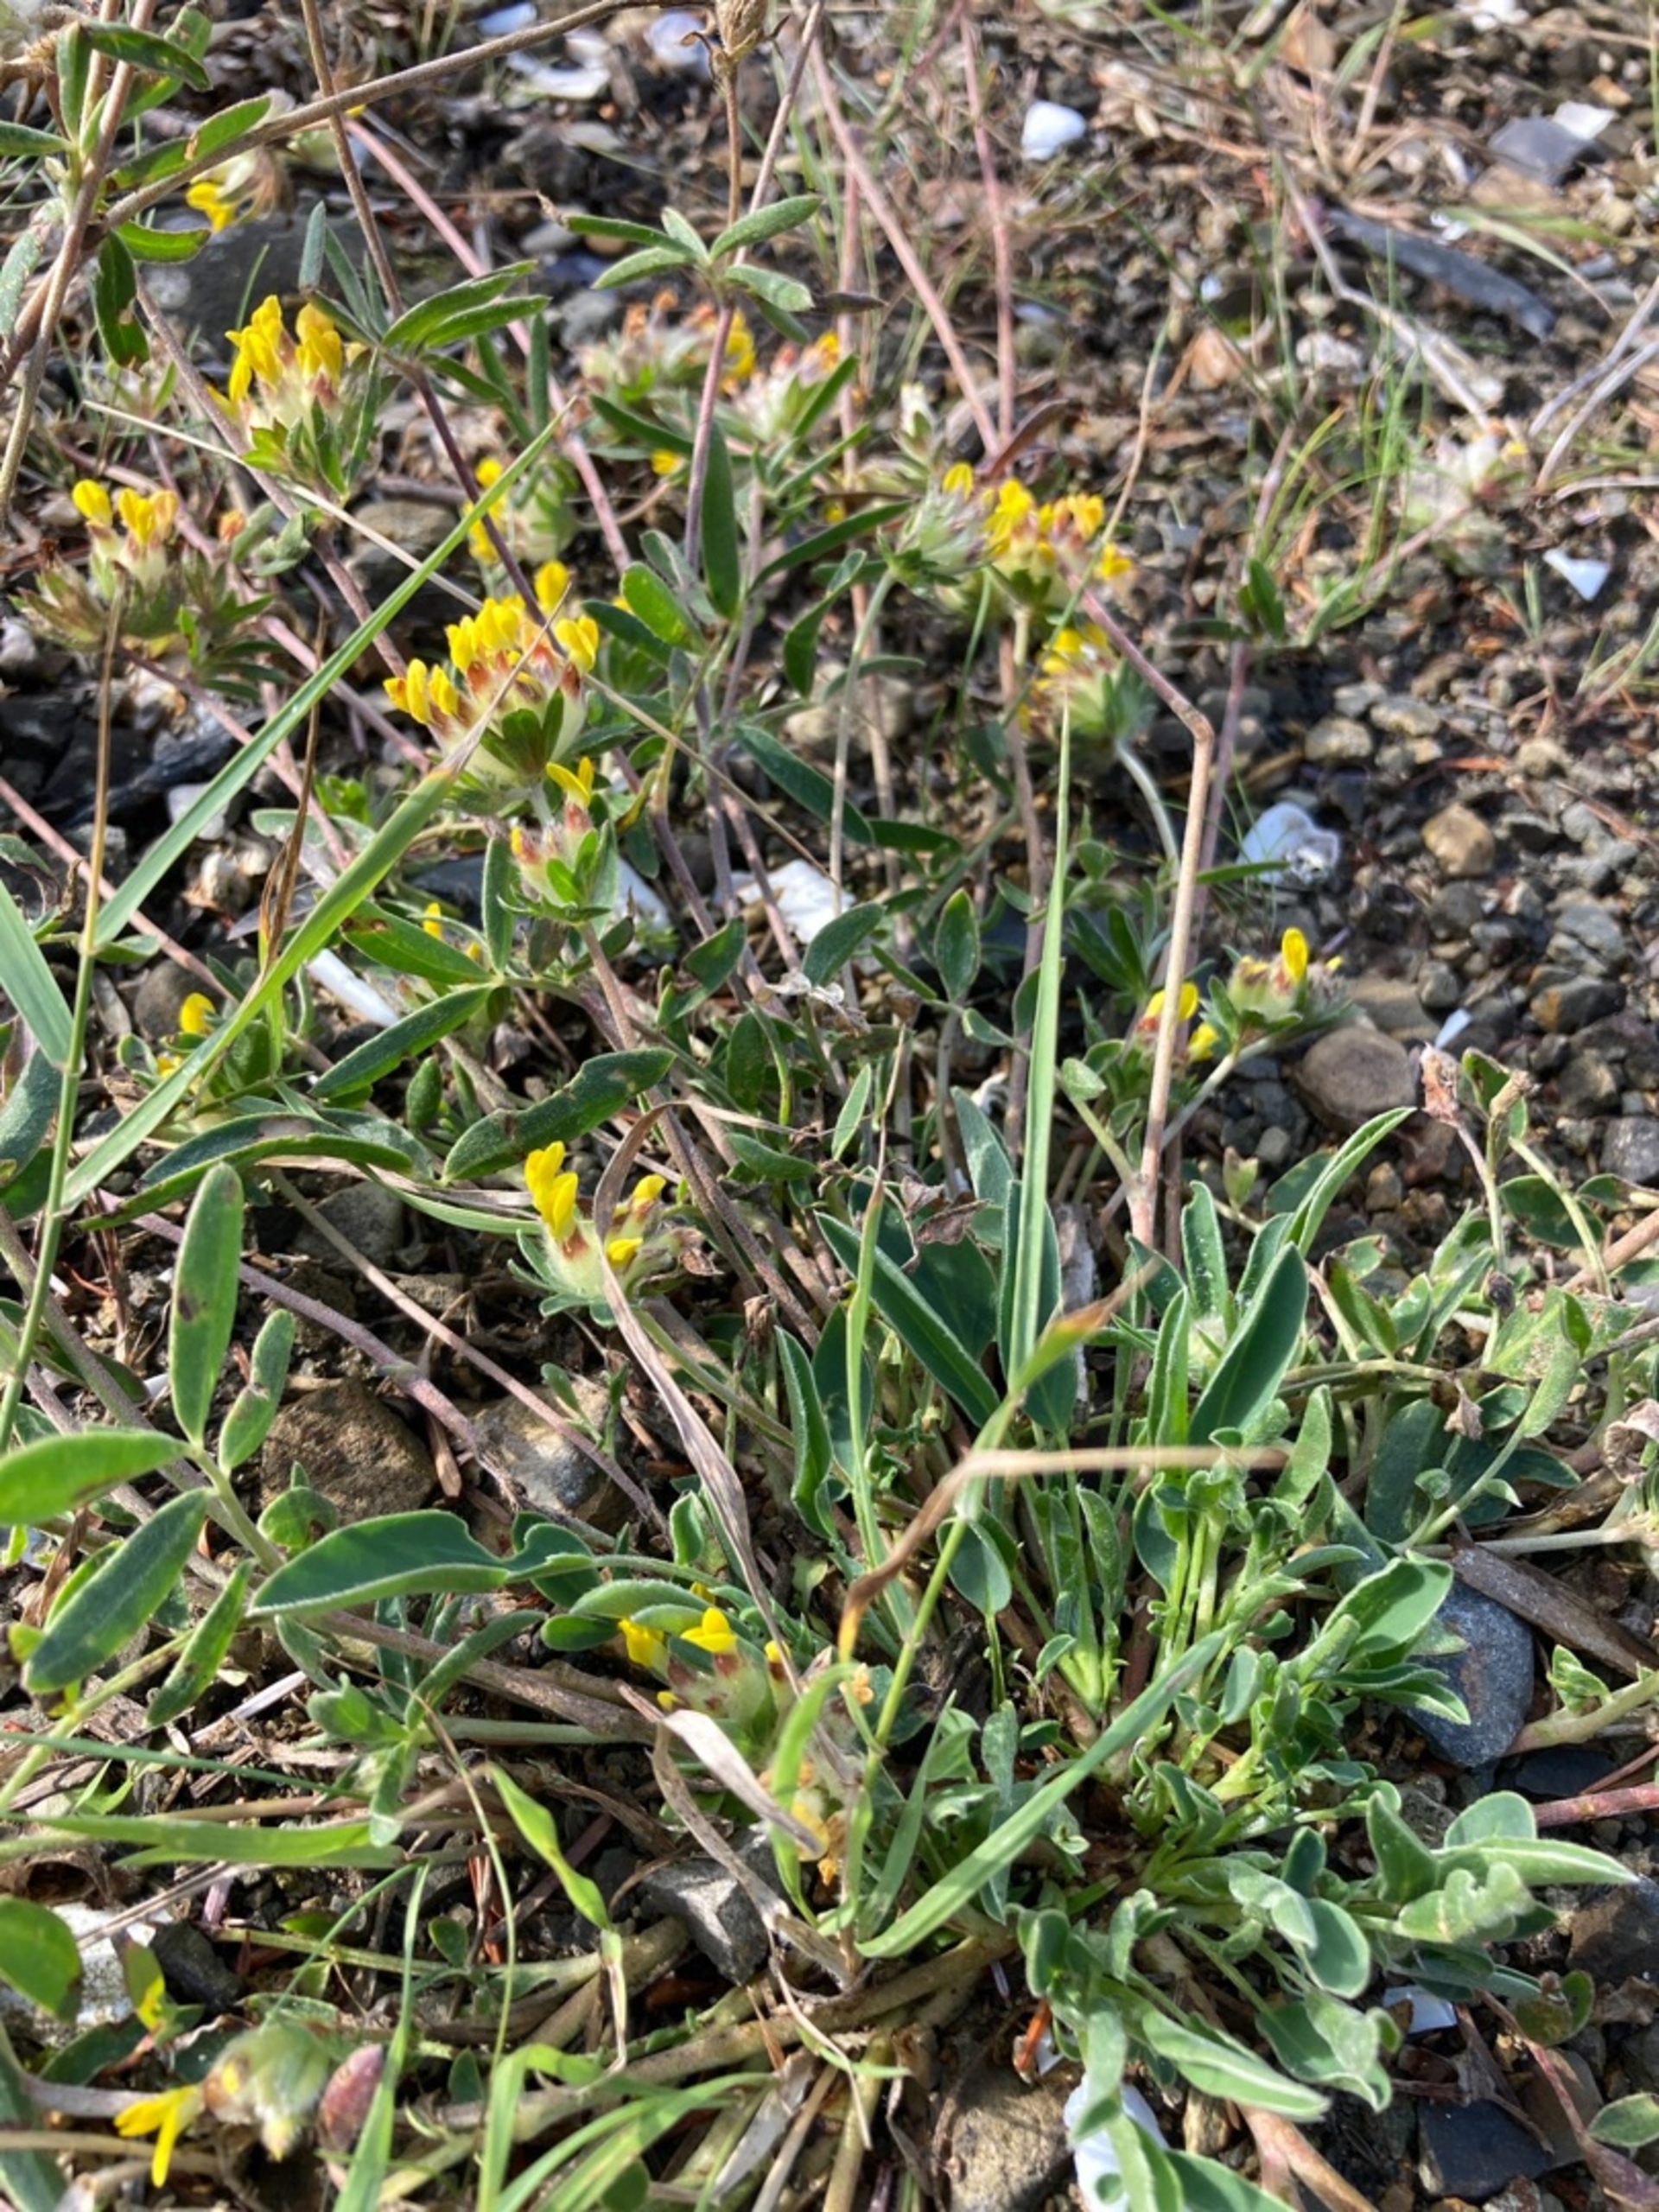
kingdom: Plantae
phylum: Tracheophyta
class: Magnoliopsida
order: Fabales
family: Fabaceae
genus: Anthyllis
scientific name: Anthyllis vulneraria
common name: Rundbælg
